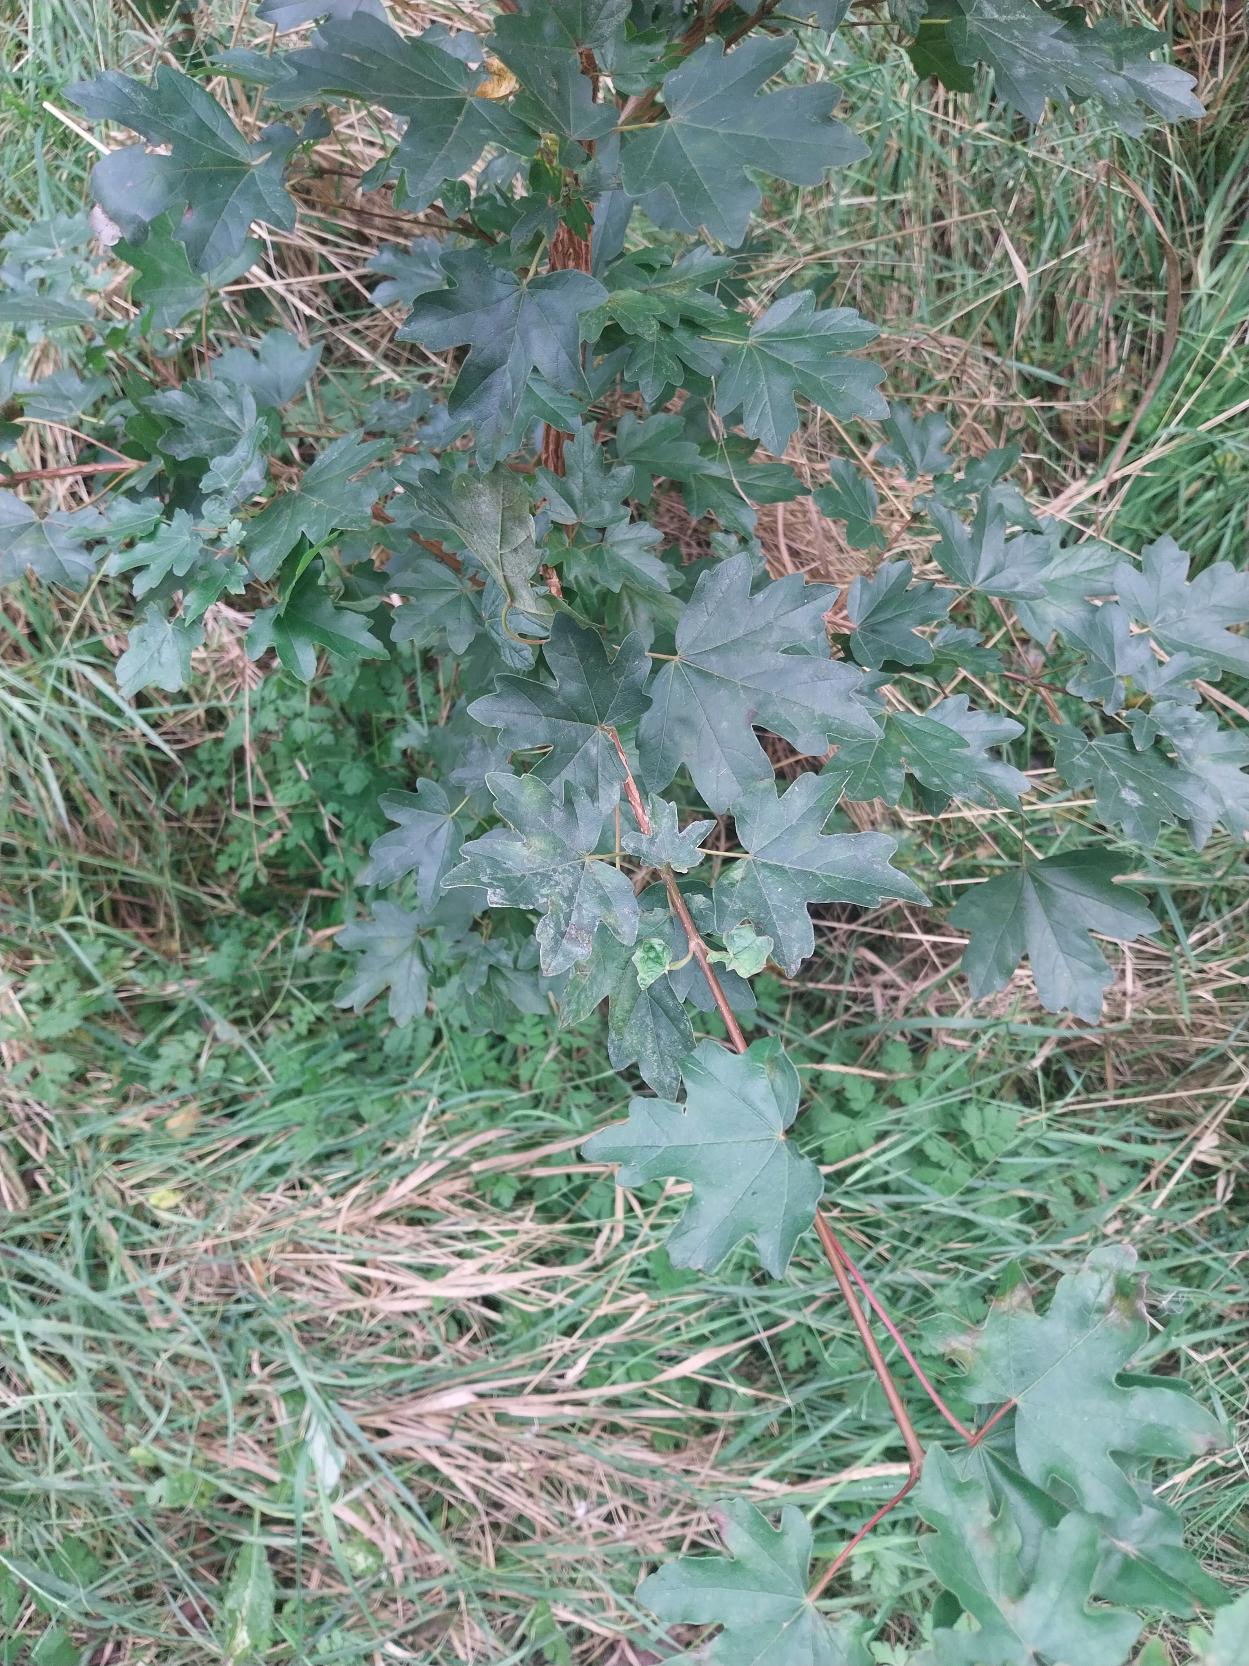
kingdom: Plantae
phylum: Tracheophyta
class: Magnoliopsida
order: Sapindales
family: Sapindaceae
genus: Acer
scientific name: Acer campestre
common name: Navr
